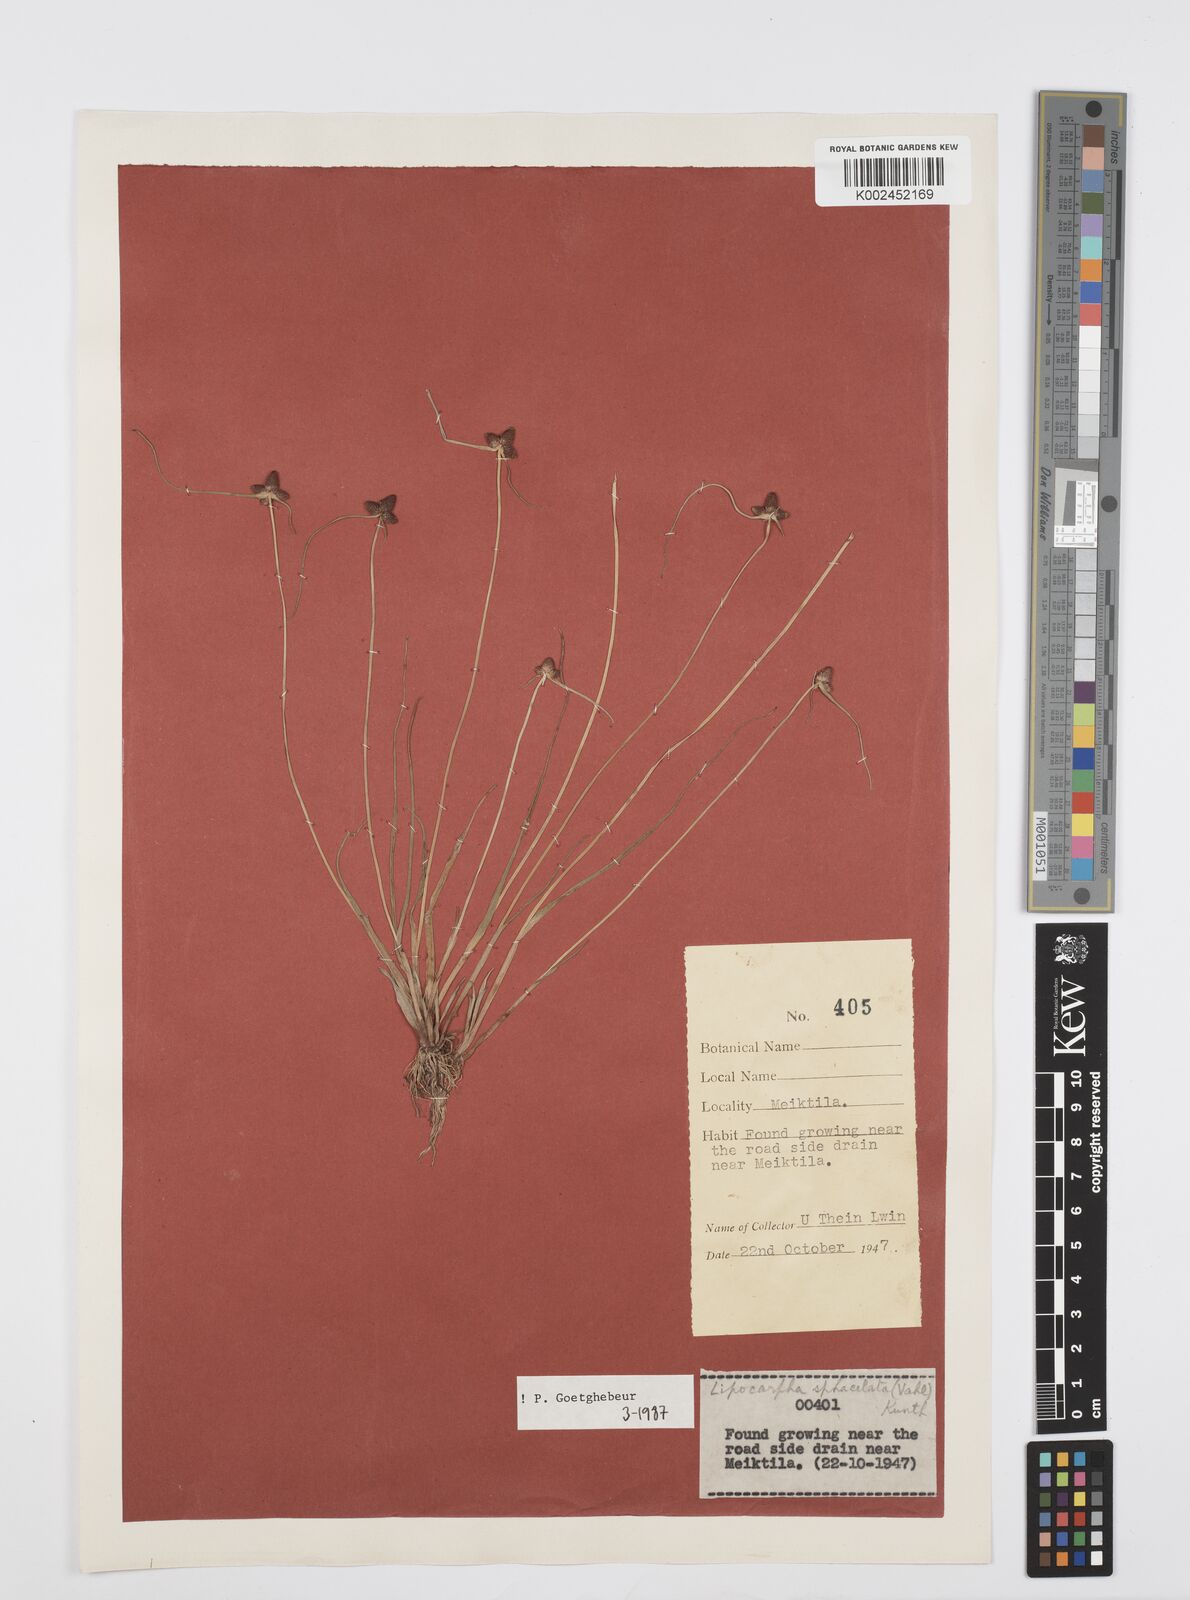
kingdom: Plantae
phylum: Tracheophyta
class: Liliopsida
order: Poales
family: Cyperaceae
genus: Cyperus
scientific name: Cyperus sphacelatus
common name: Roadside flatsedge
